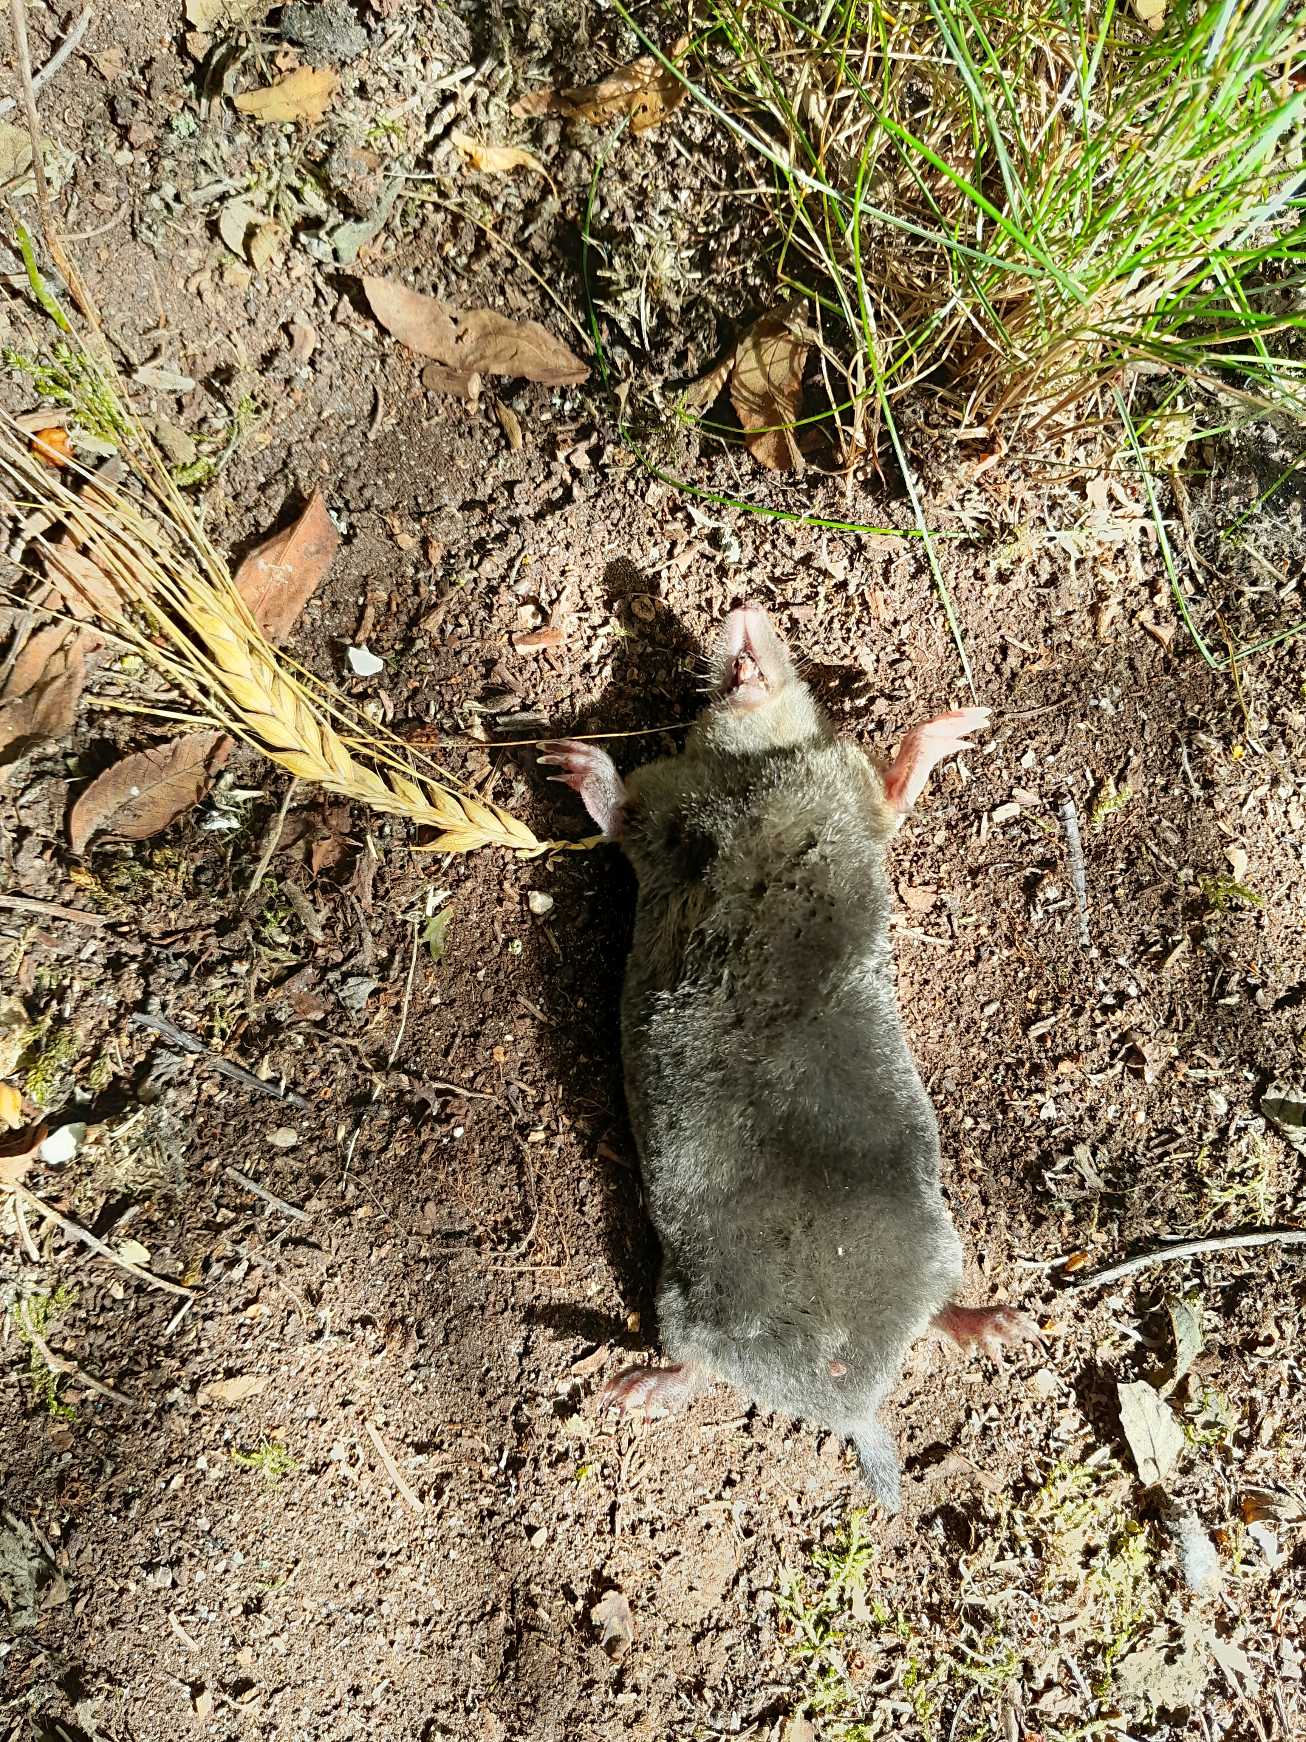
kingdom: Animalia
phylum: Chordata
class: Mammalia
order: Soricomorpha
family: Talpidae
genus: Talpa
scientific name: Talpa europaea
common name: Muldvarp
